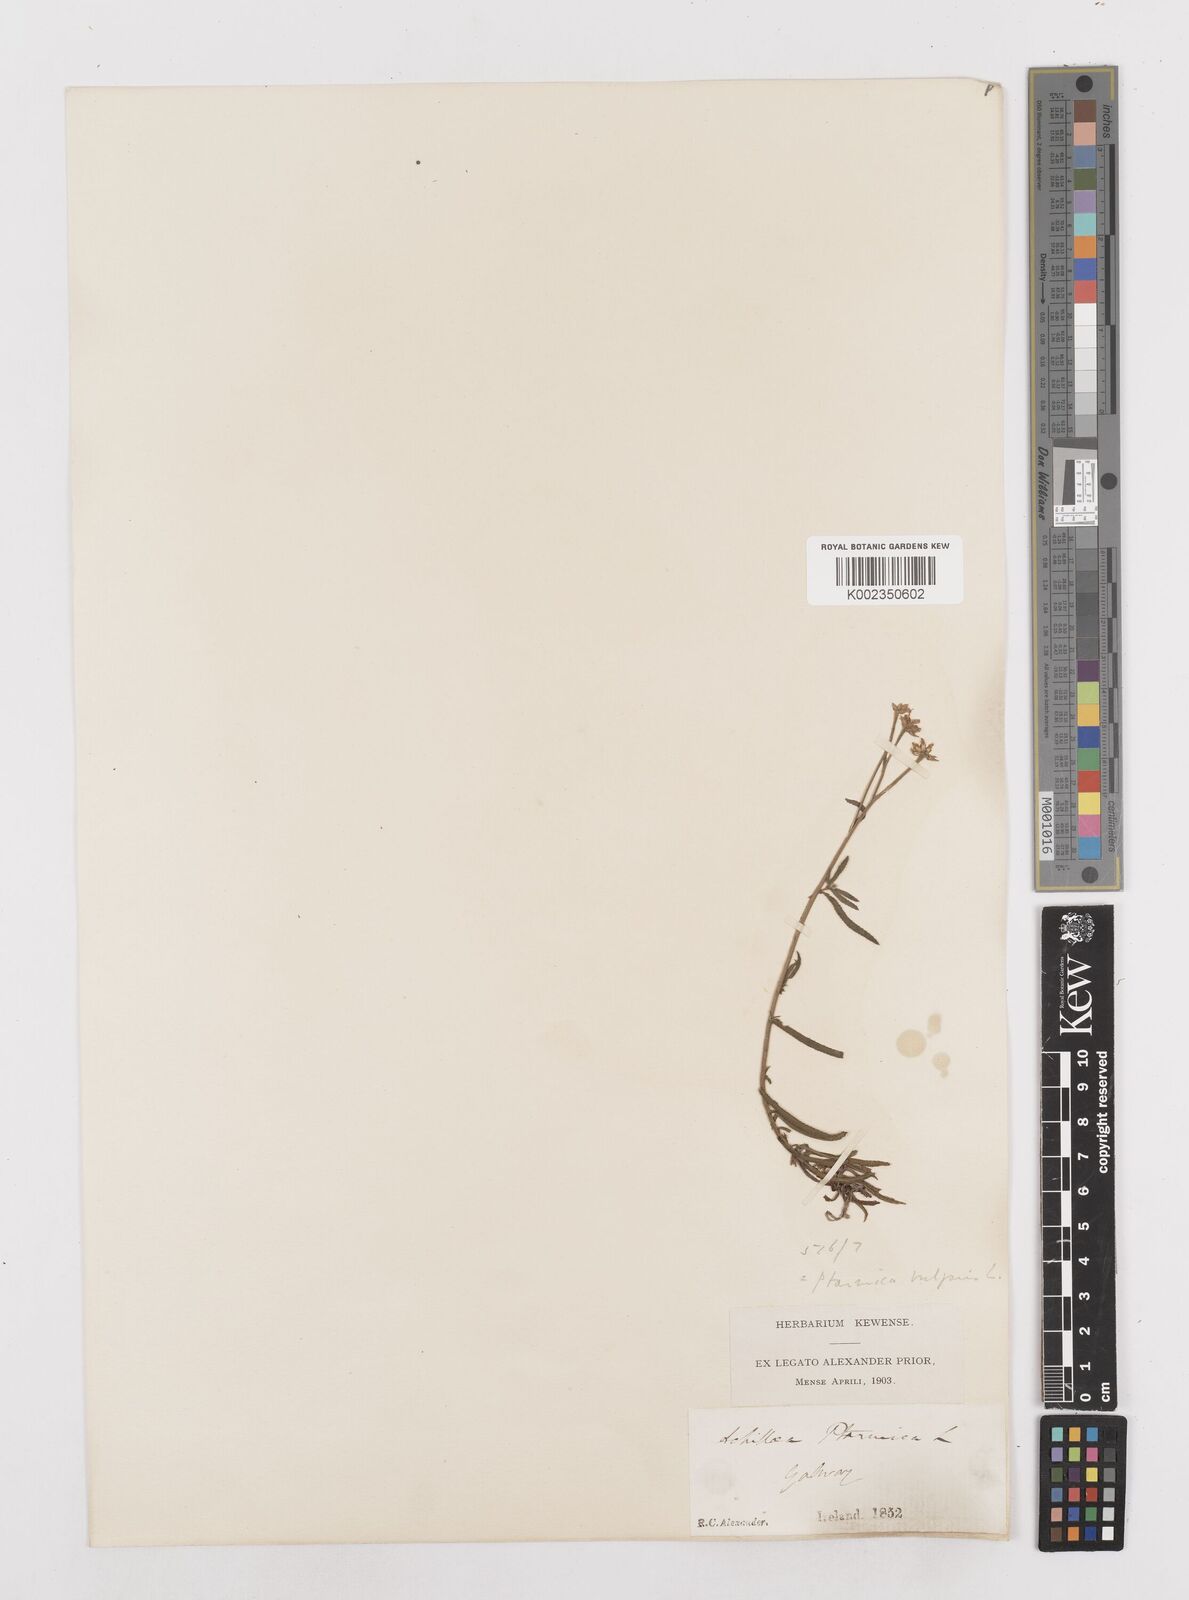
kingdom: Plantae
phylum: Tracheophyta
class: Magnoliopsida
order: Asterales
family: Asteraceae
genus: Achillea
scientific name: Achillea ptarmica
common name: Sneezeweed
